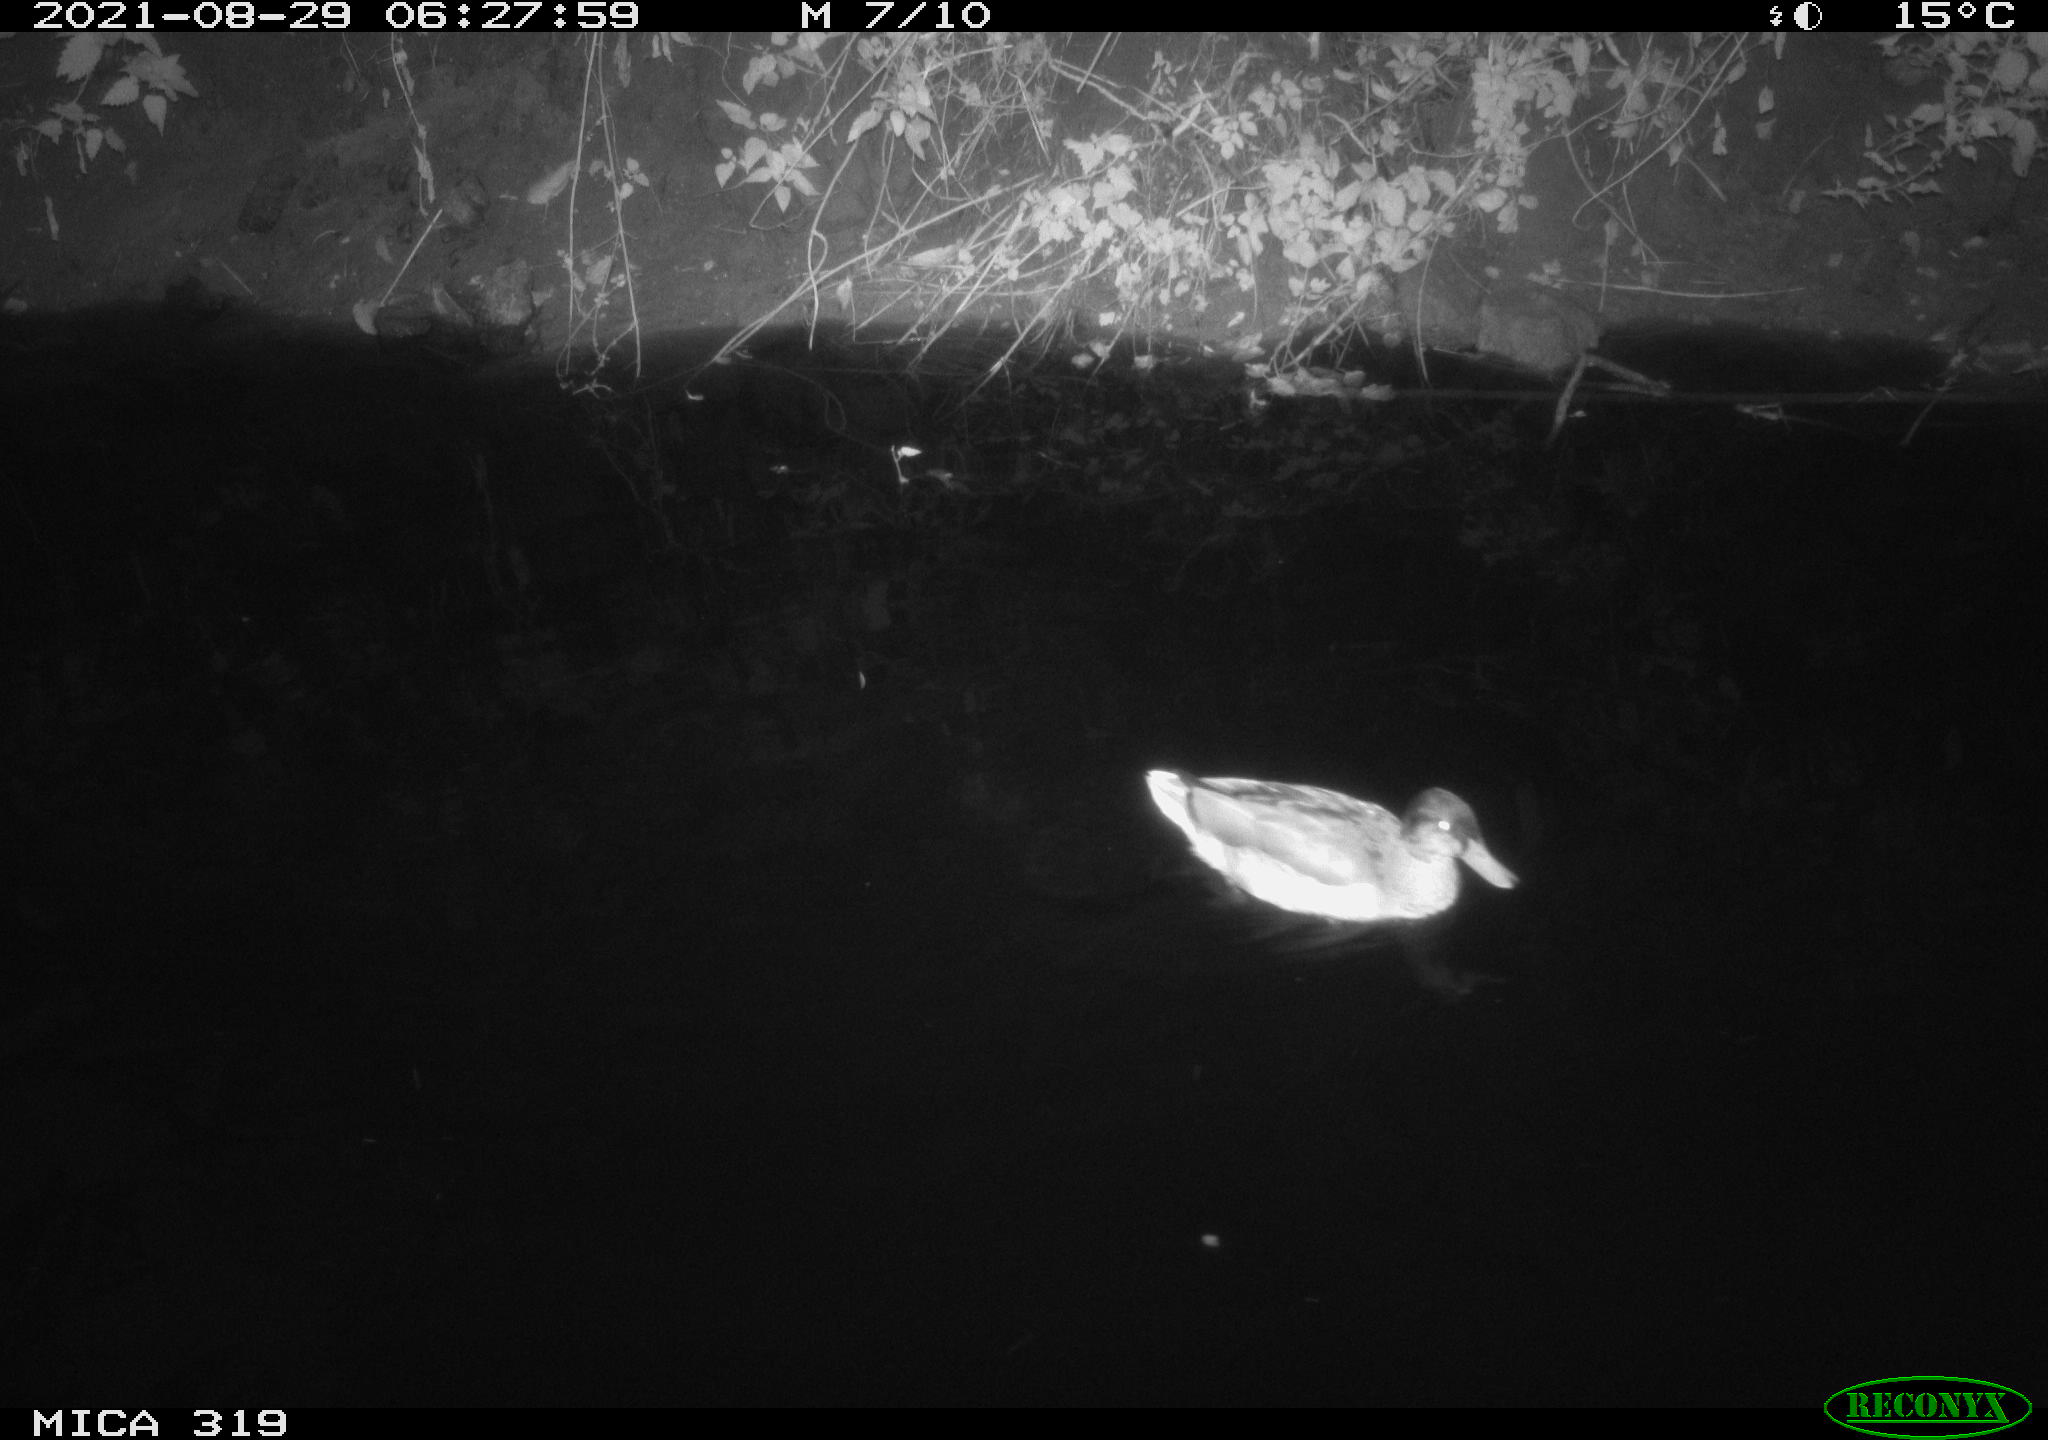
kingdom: Animalia
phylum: Chordata
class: Aves
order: Anseriformes
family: Anatidae
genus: Anas
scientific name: Anas platyrhynchos
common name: Mallard
